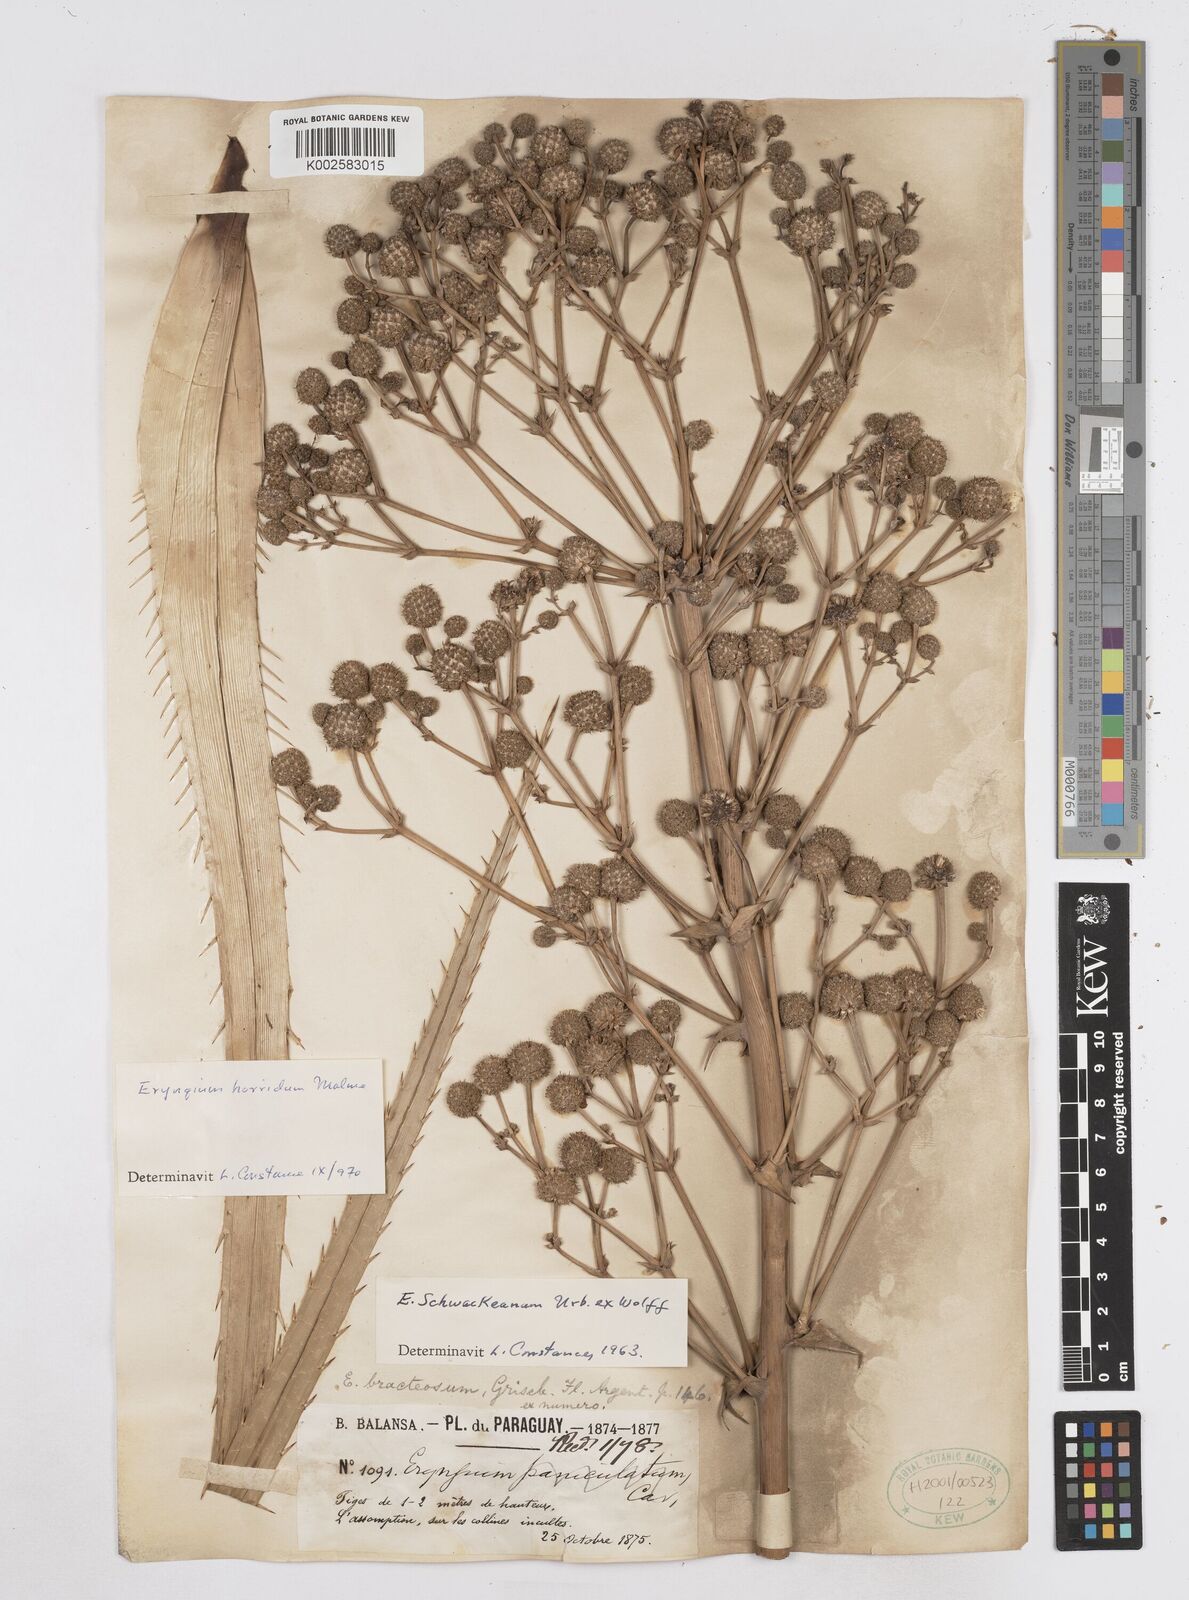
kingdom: Plantae
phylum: Tracheophyta
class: Magnoliopsida
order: Apiales
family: Apiaceae
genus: Eryngium
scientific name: Eryngium horridum
